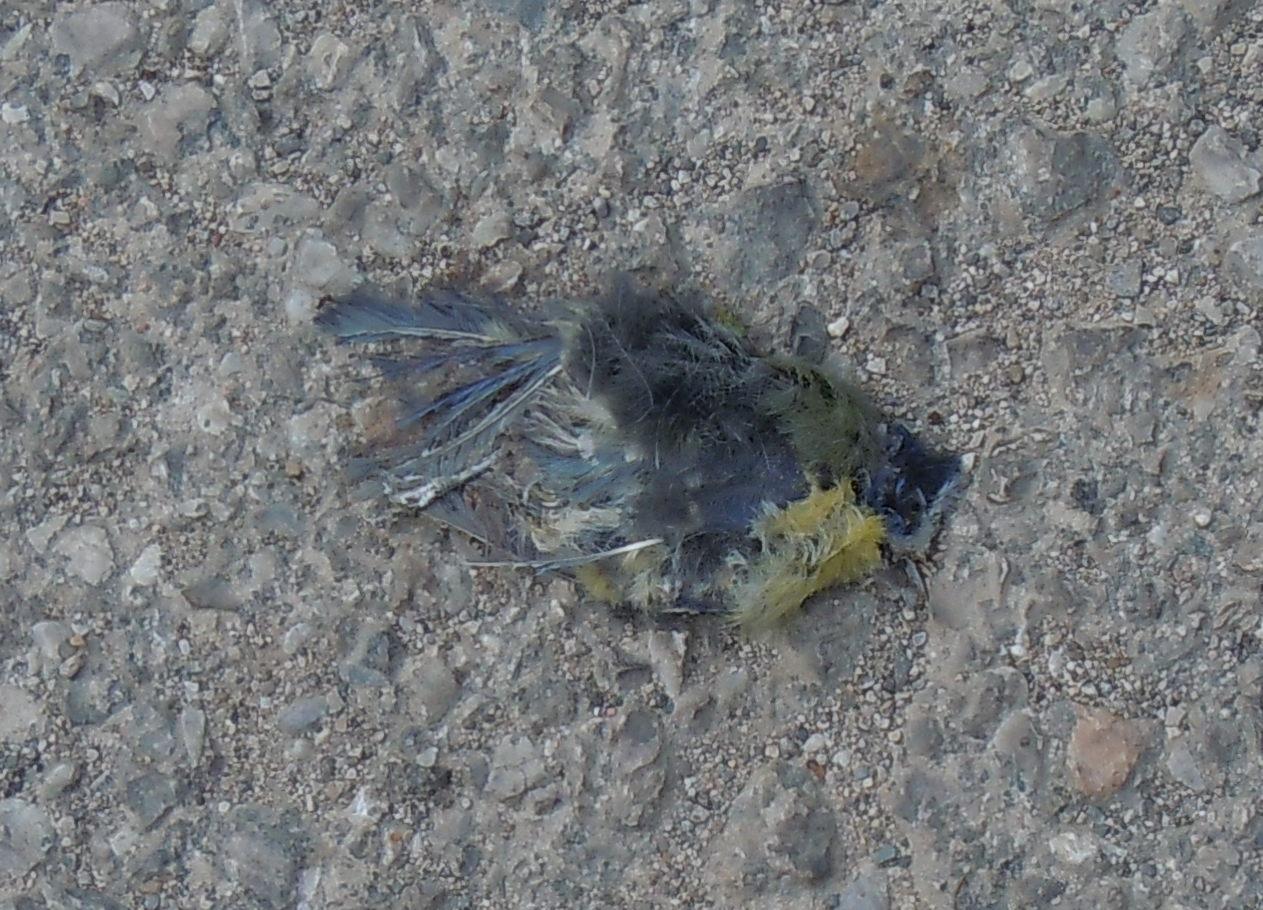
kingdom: Animalia
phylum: Chordata
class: Aves
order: Passeriformes
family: Paridae
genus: Cyanistes
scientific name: Cyanistes caeruleus
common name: Eurasian blue tit
